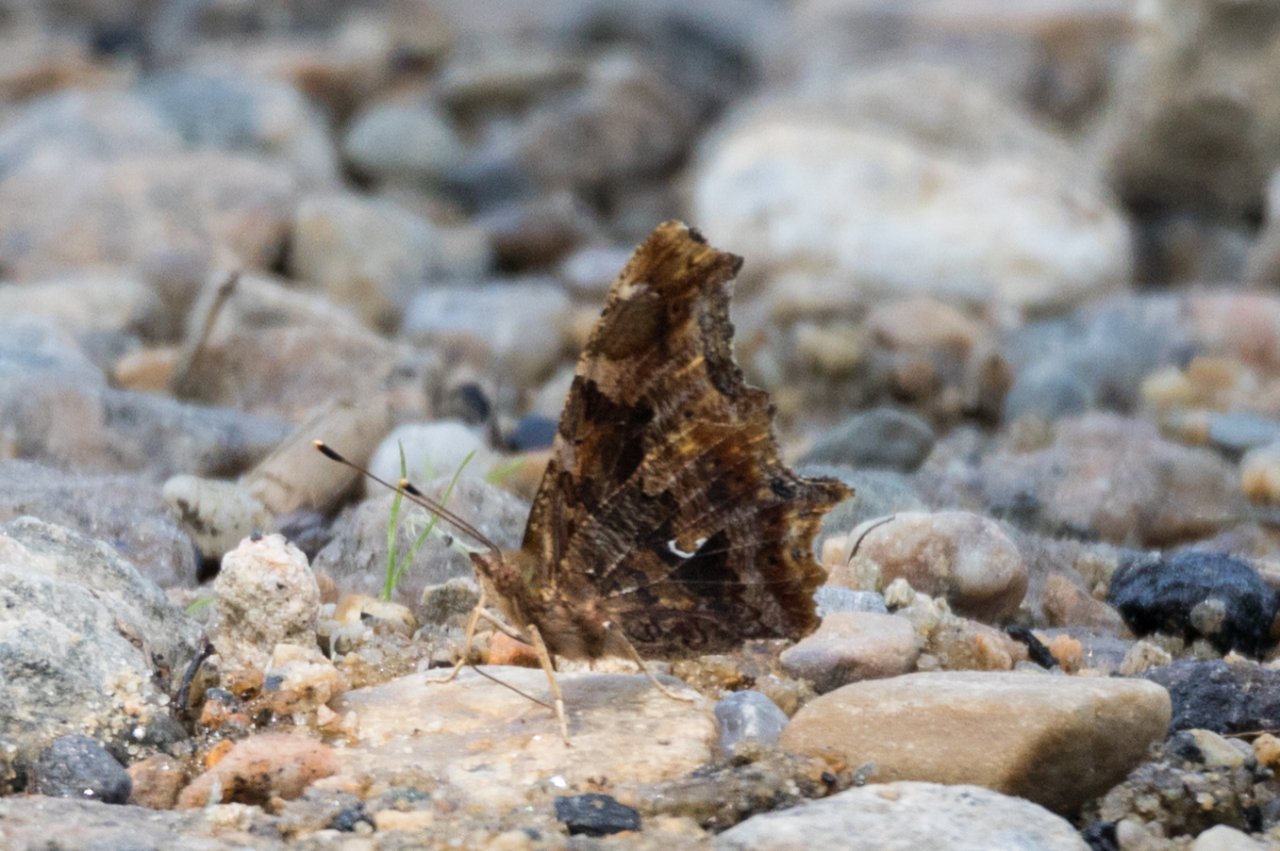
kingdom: Animalia
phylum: Arthropoda
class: Insecta
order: Lepidoptera
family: Nymphalidae
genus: Polygonia
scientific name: Polygonia comma
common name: Eastern Comma
